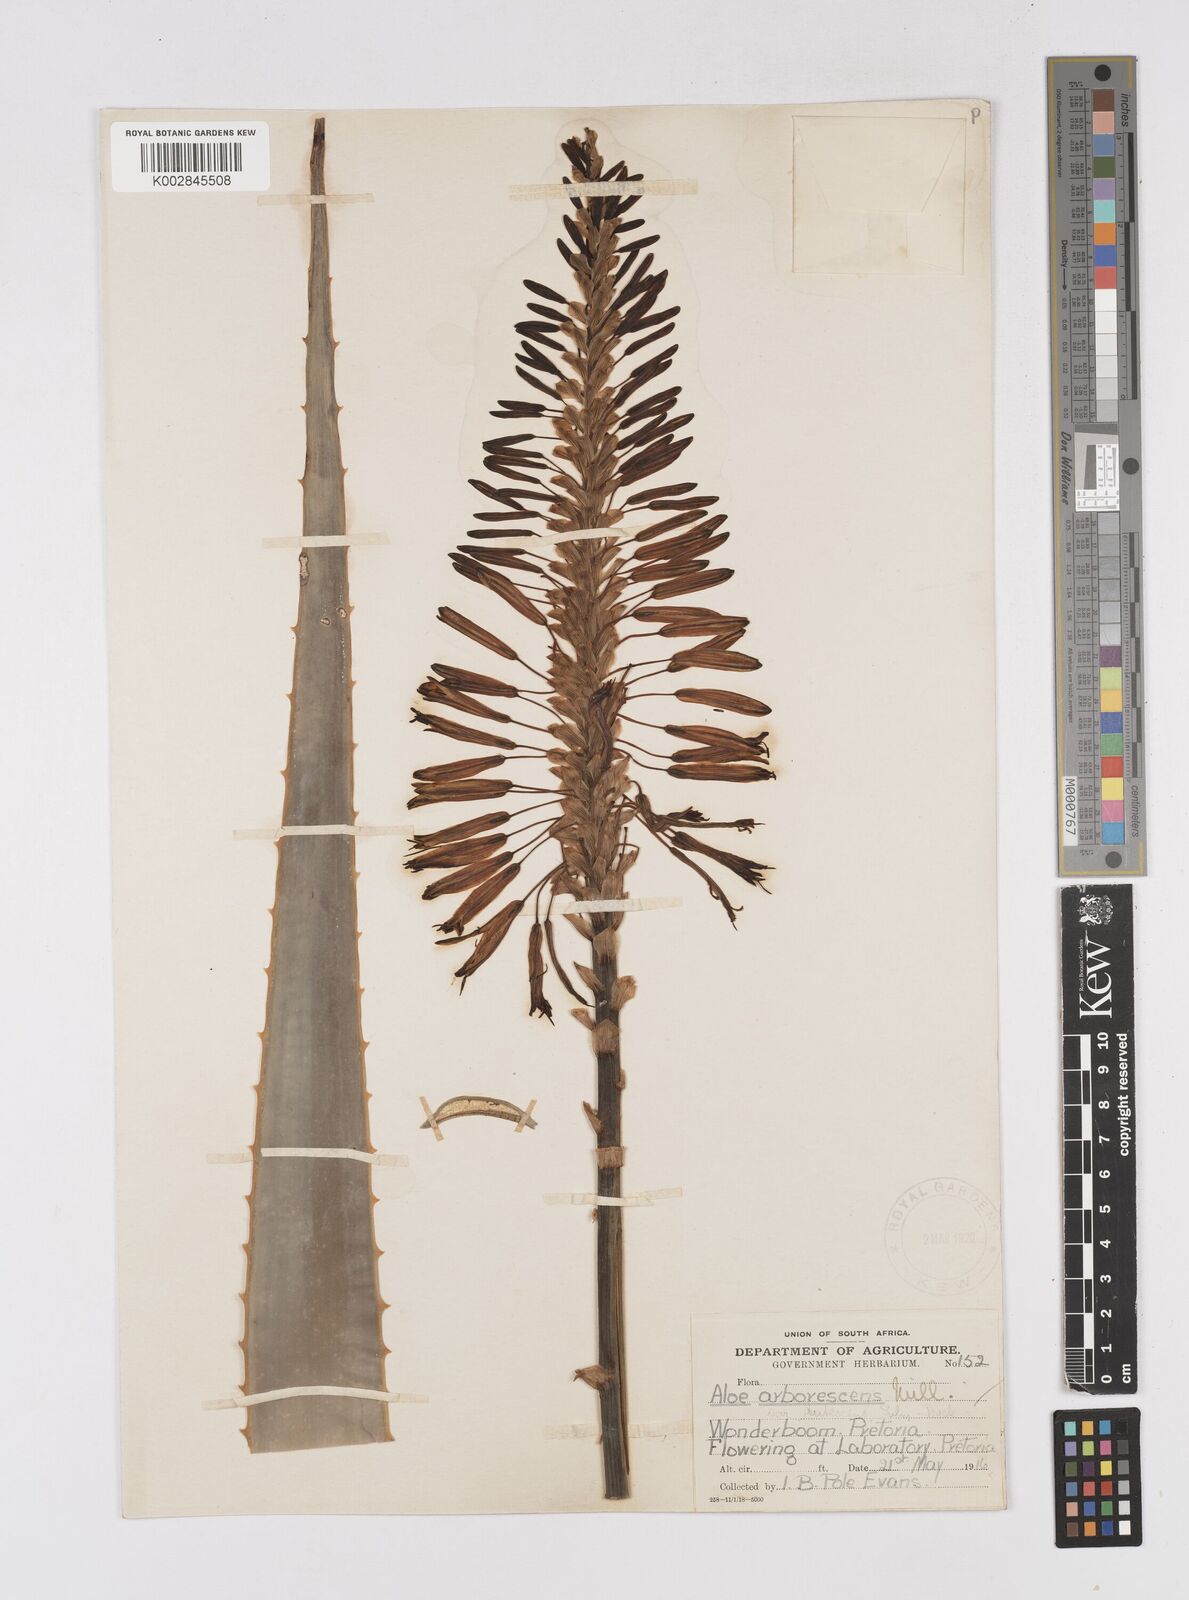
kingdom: Plantae
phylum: Tracheophyta
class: Liliopsida
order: Asparagales
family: Asphodelaceae
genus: Aloe
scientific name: Aloe arborescens
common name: Candelabra aloe
